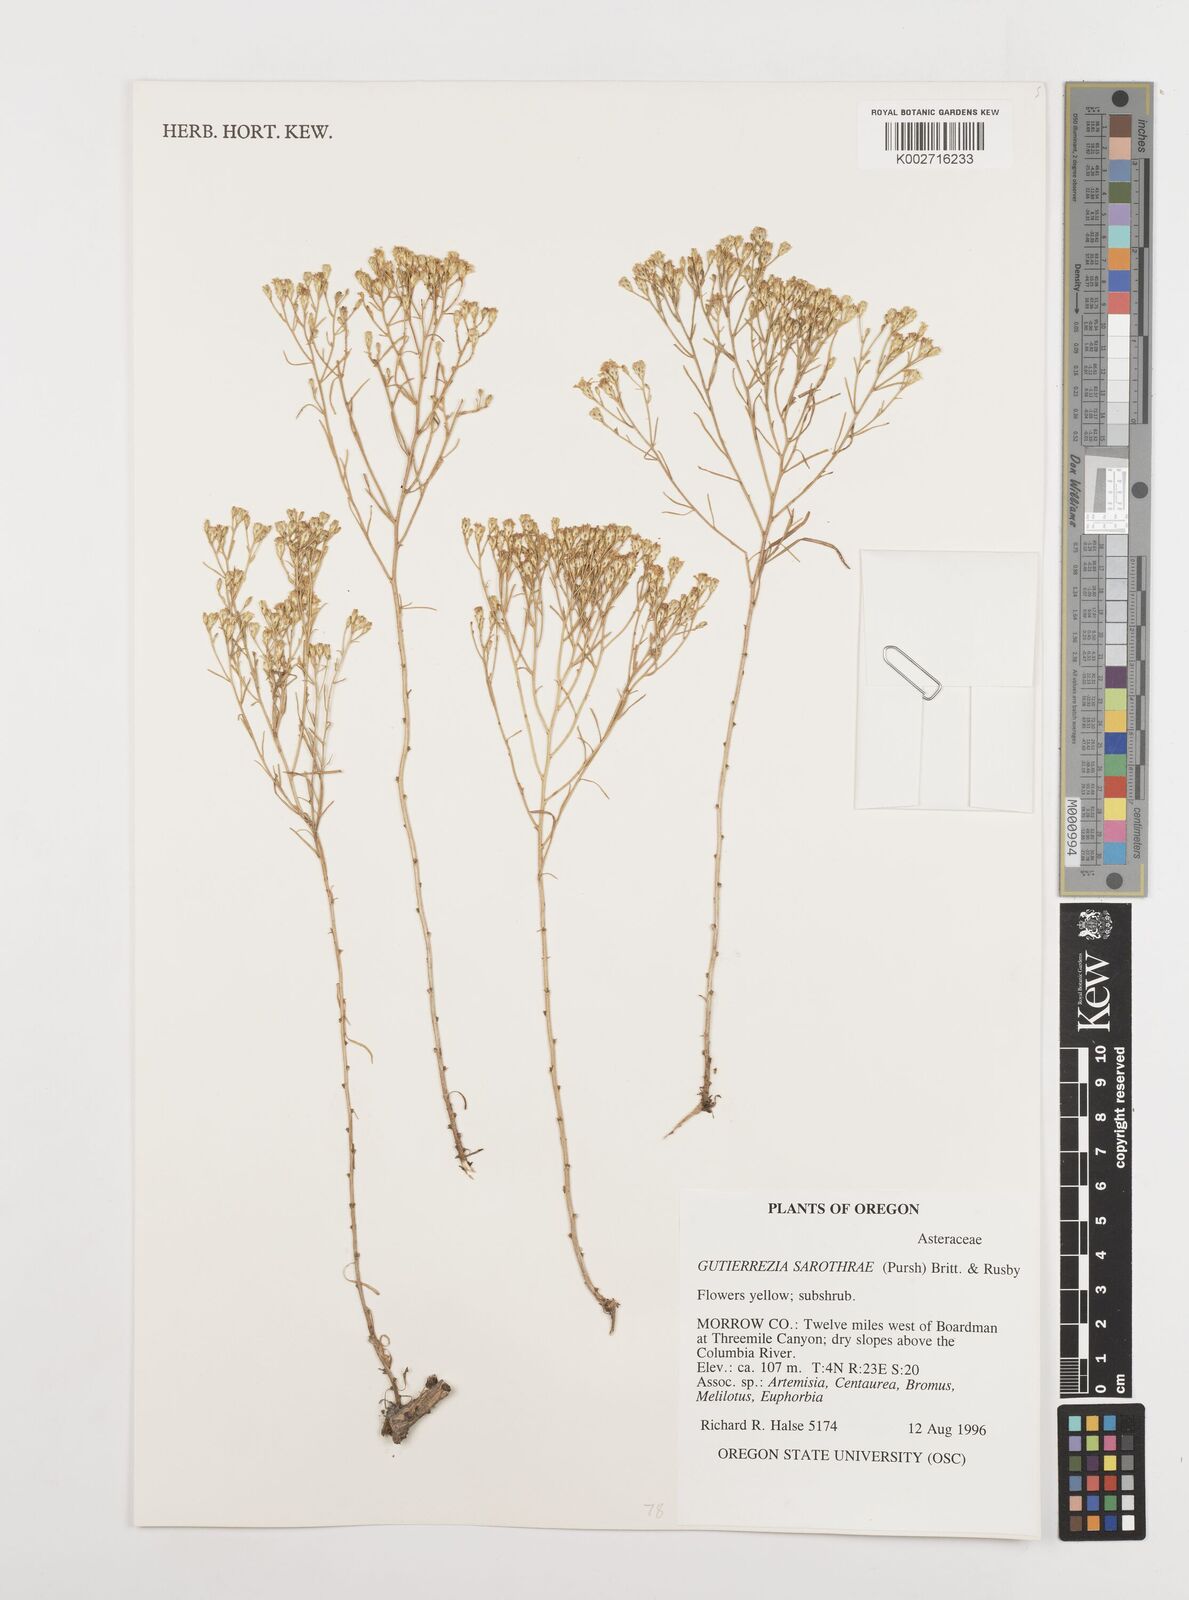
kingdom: Plantae
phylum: Tracheophyta
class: Magnoliopsida
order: Asterales
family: Asteraceae
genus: Gutierrezia
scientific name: Gutierrezia sarothrae
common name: Broom snakeweed
